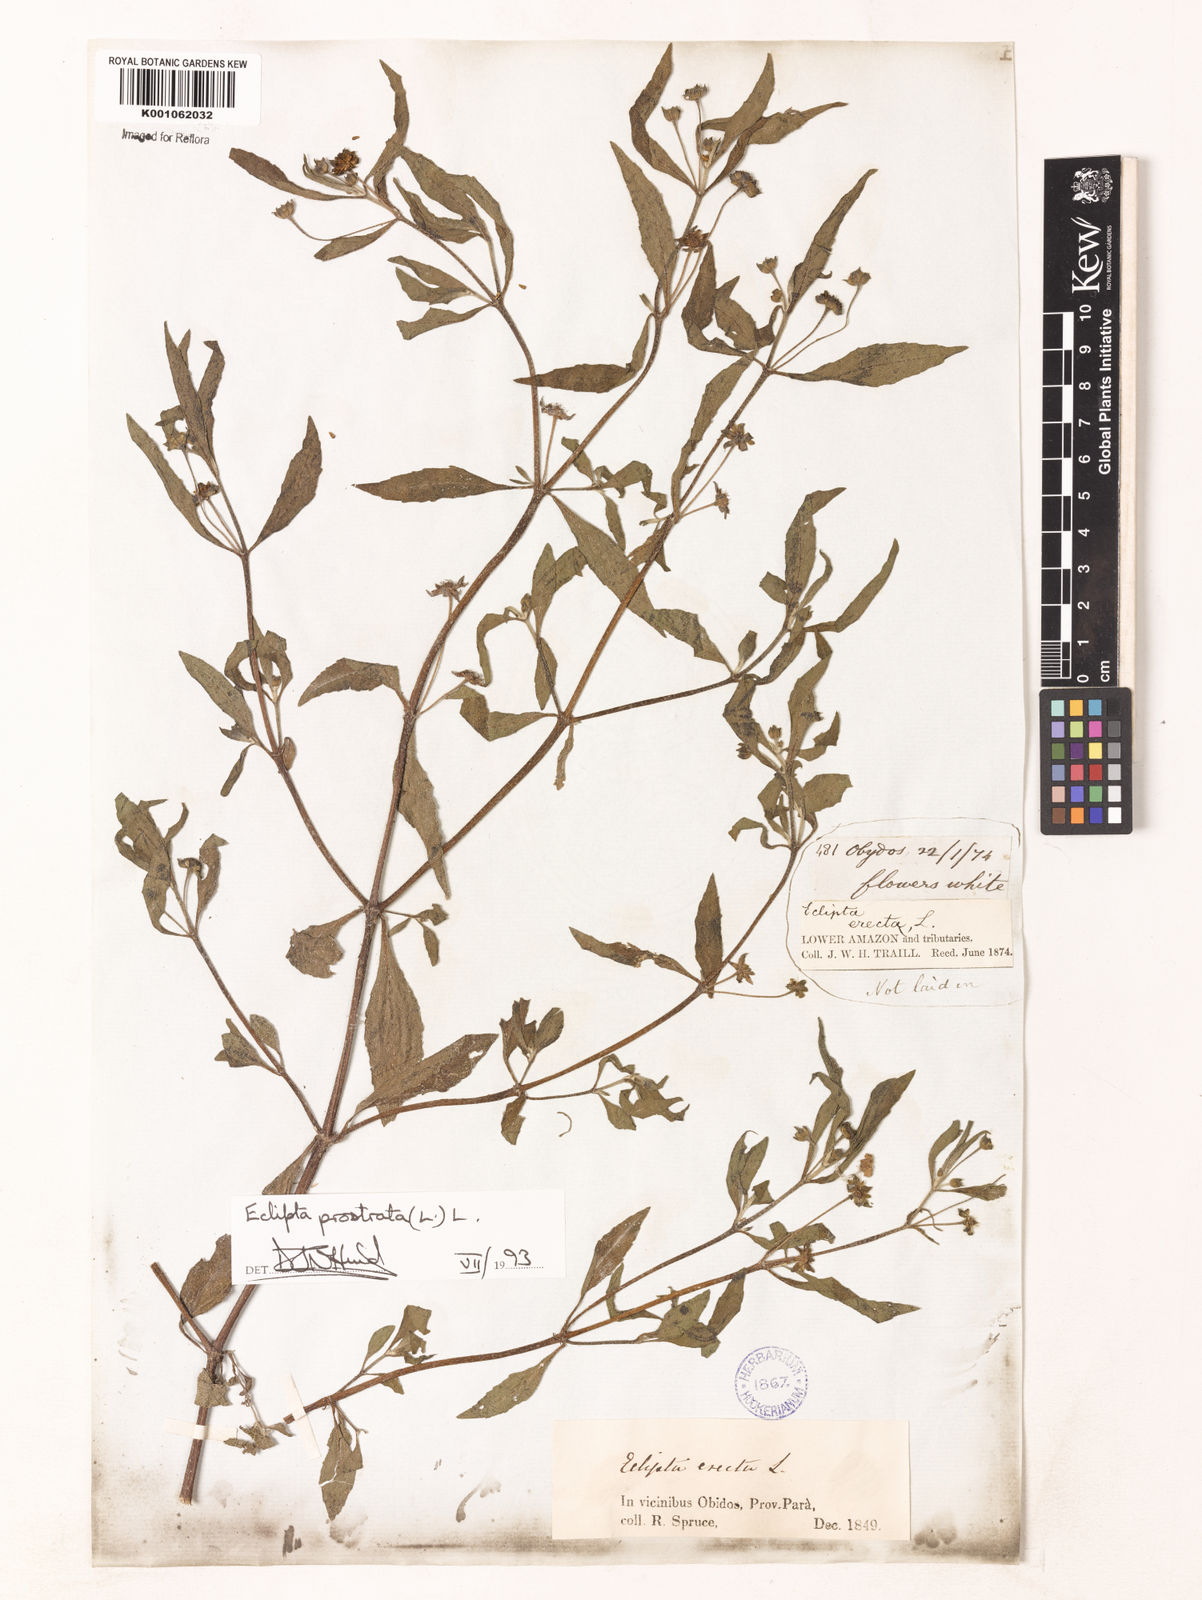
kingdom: Plantae
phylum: Tracheophyta
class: Magnoliopsida
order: Asterales
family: Asteraceae
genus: Eclipta
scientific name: Eclipta prostrata
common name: False daisy
